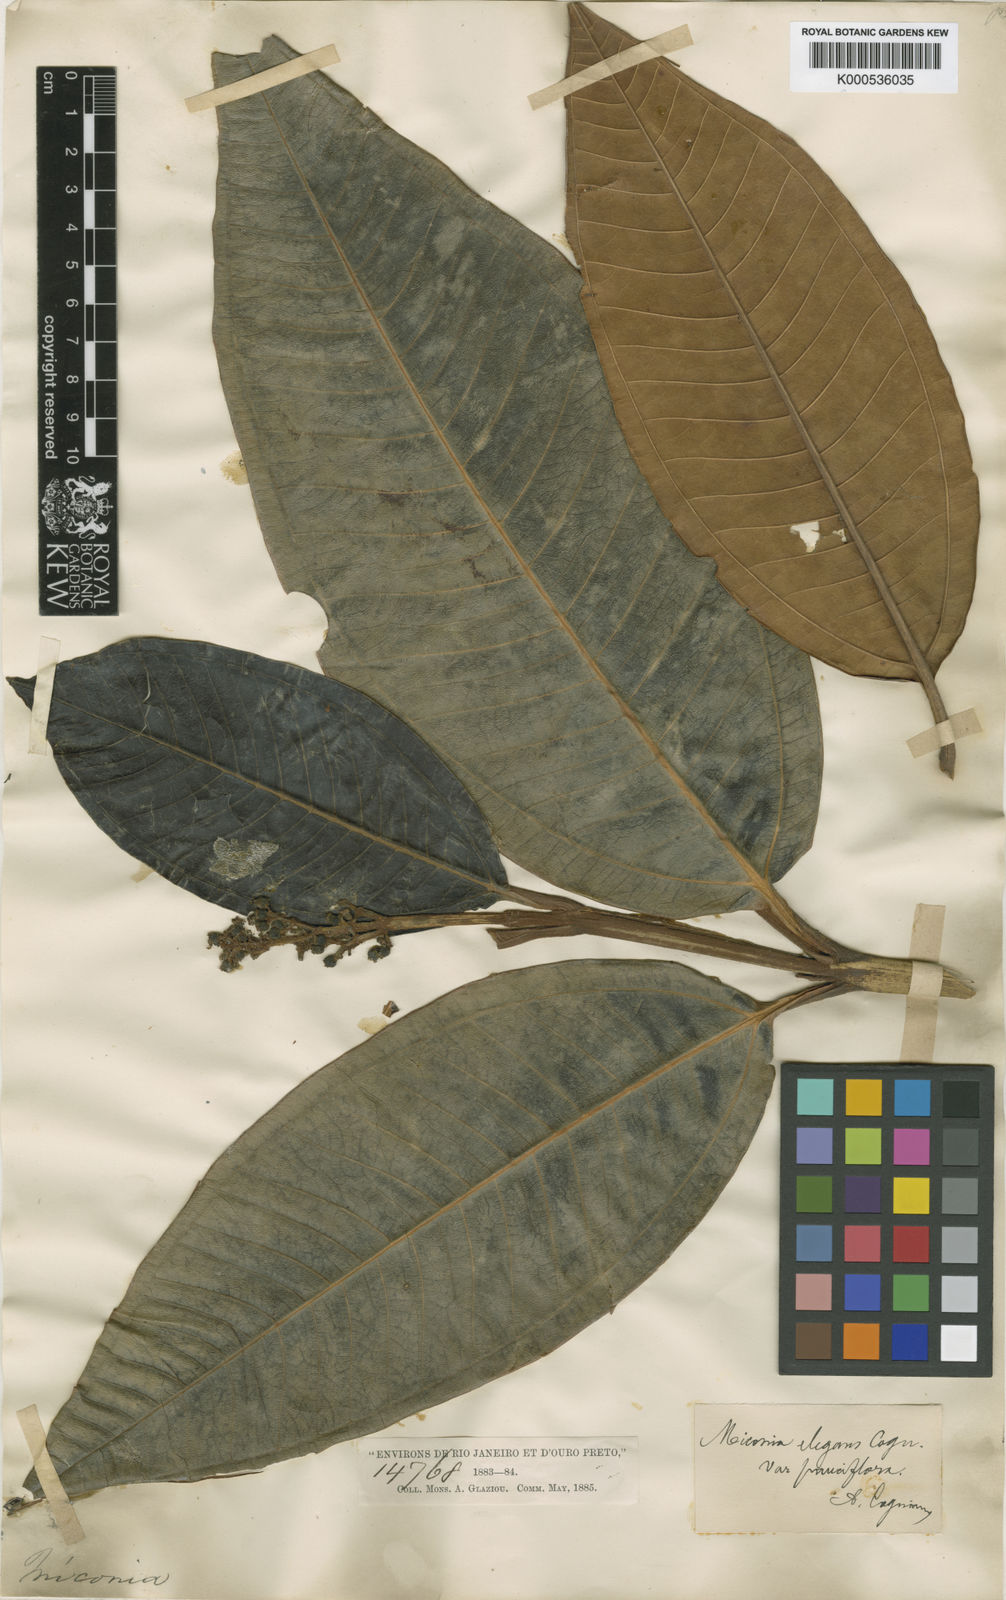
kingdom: Plantae
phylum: Tracheophyta
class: Magnoliopsida
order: Myrtales
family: Melastomataceae
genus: Miconia
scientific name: Miconia elegans
